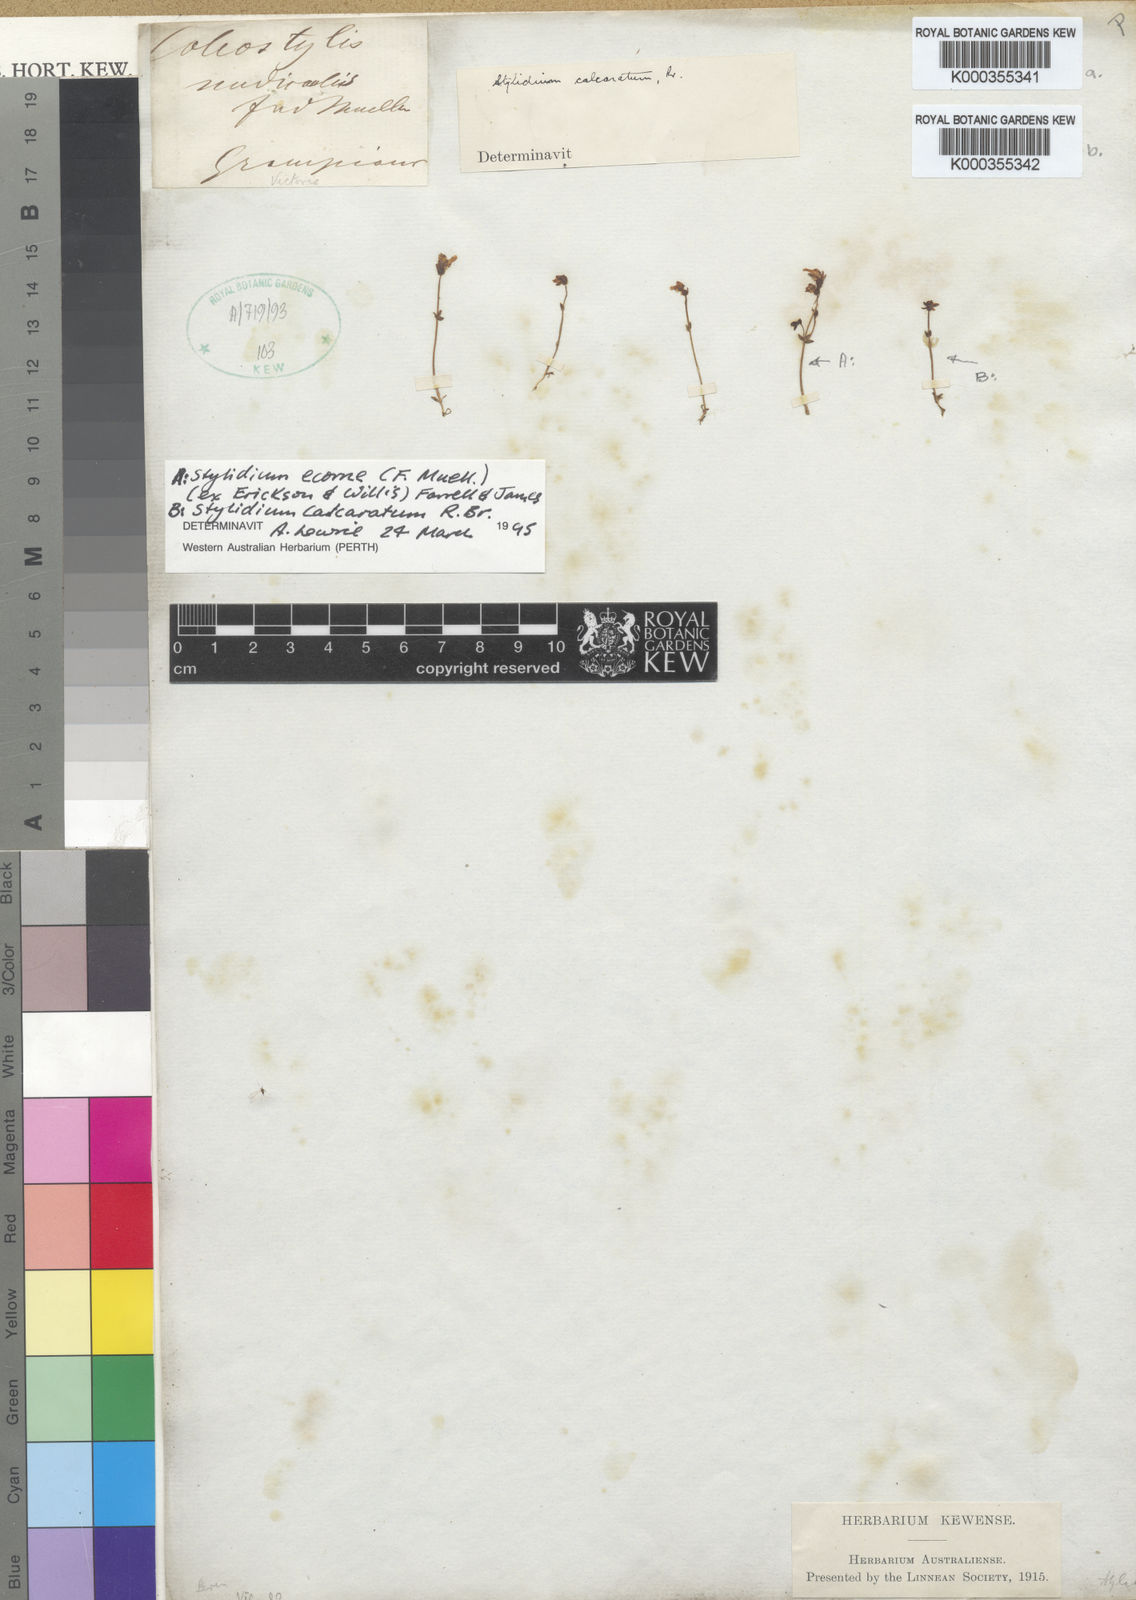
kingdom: Plantae
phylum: Tracheophyta
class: Magnoliopsida
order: Asterales
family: Stylidiaceae
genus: Stylidium
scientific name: Stylidium
